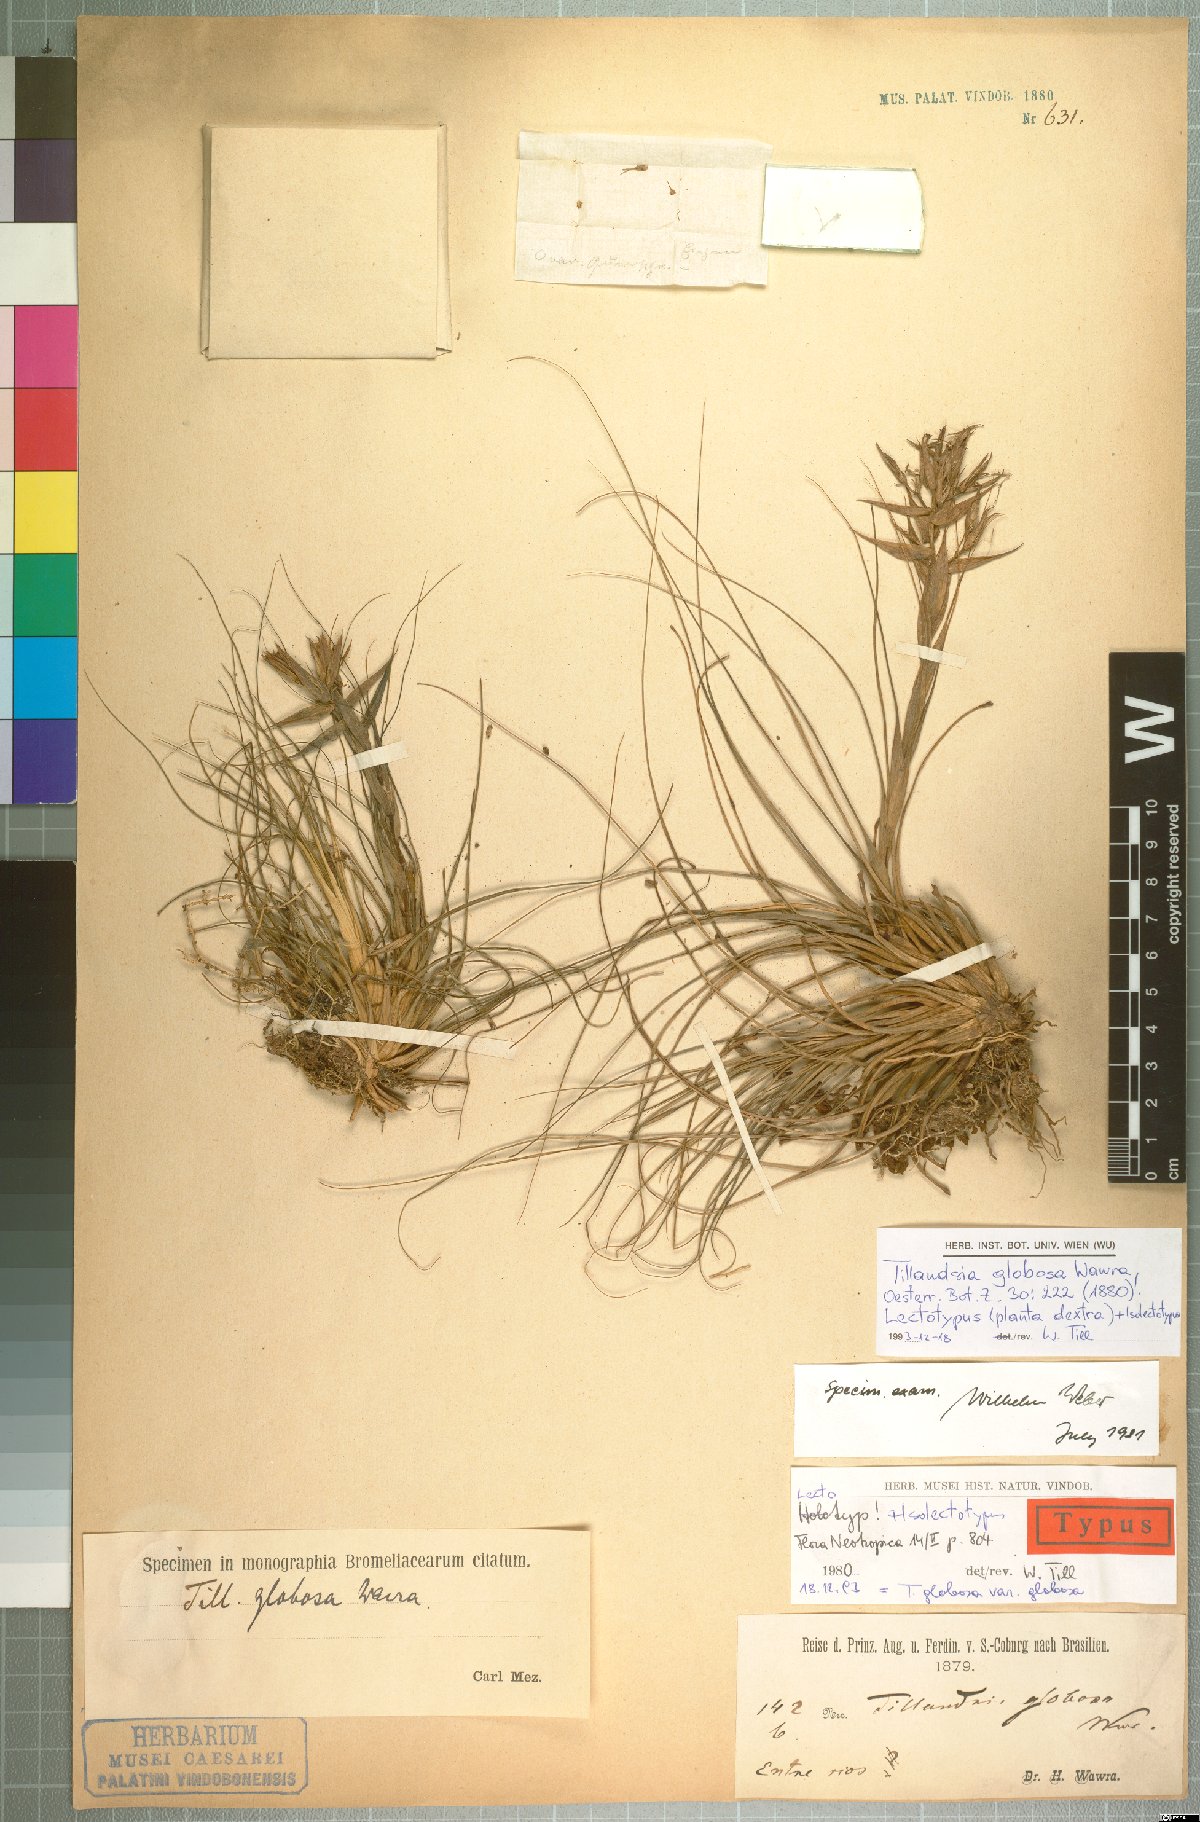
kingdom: Plantae
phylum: Tracheophyta
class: Liliopsida
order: Poales
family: Bromeliaceae
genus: Tillandsia
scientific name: Tillandsia globosa
